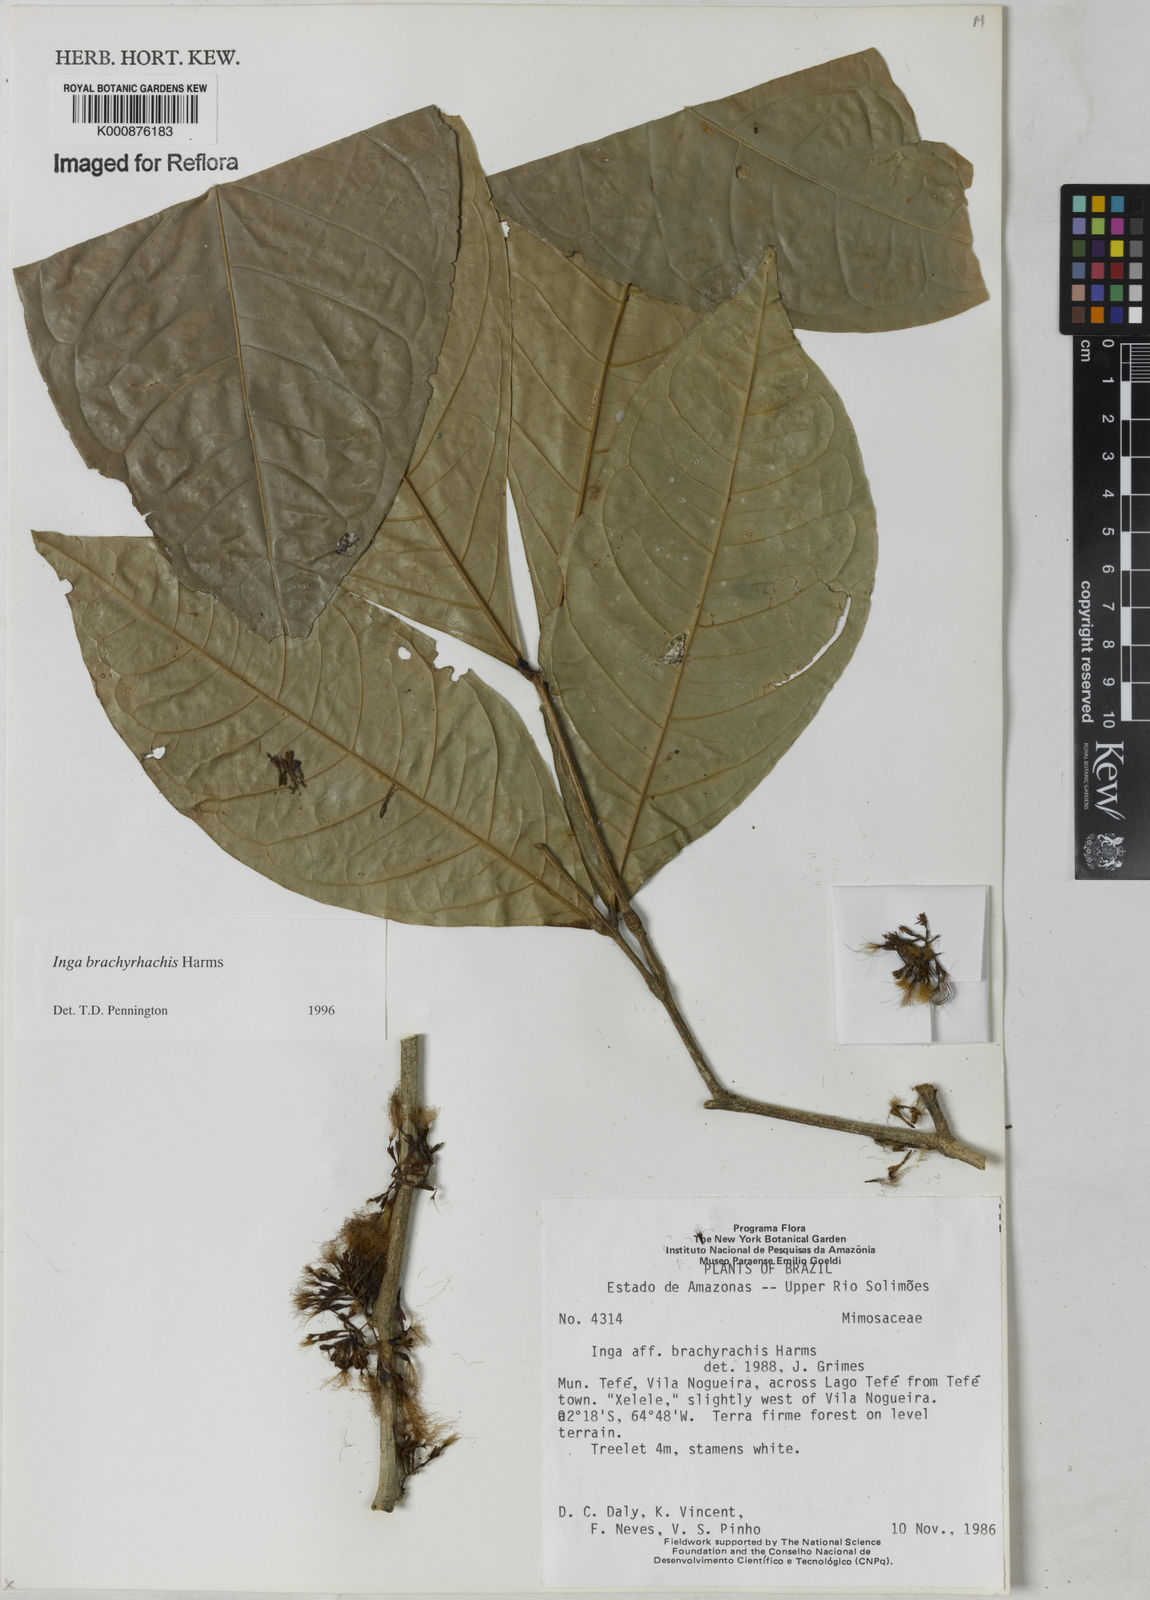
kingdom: Plantae
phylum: Tracheophyta
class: Magnoliopsida
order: Fabales
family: Fabaceae
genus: Inga
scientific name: Inga brachyrhachis
